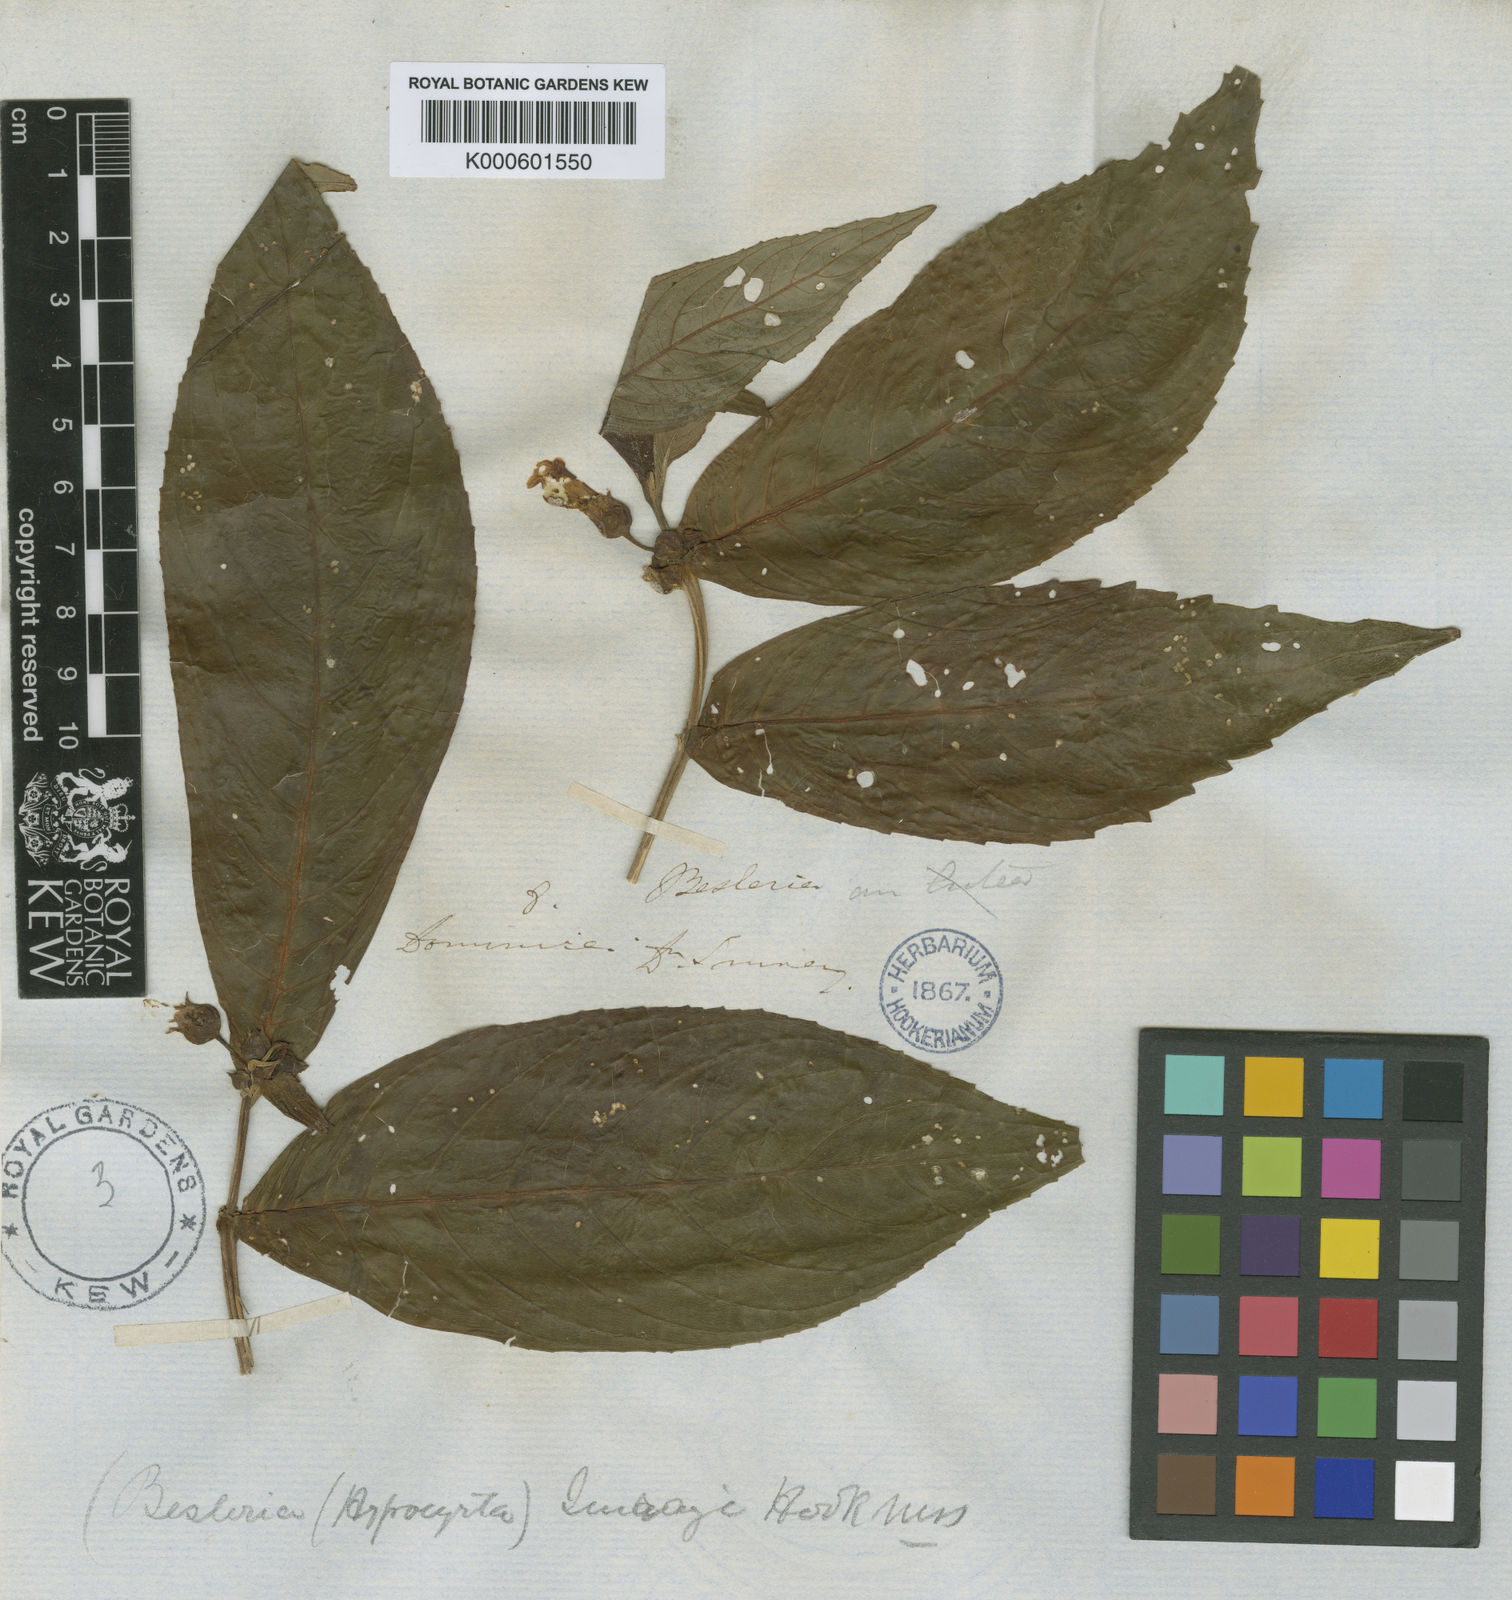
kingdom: Plantae
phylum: Tracheophyta
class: Magnoliopsida
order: Lamiales
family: Gesneriaceae
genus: Besleria
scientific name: Besleria lutea
